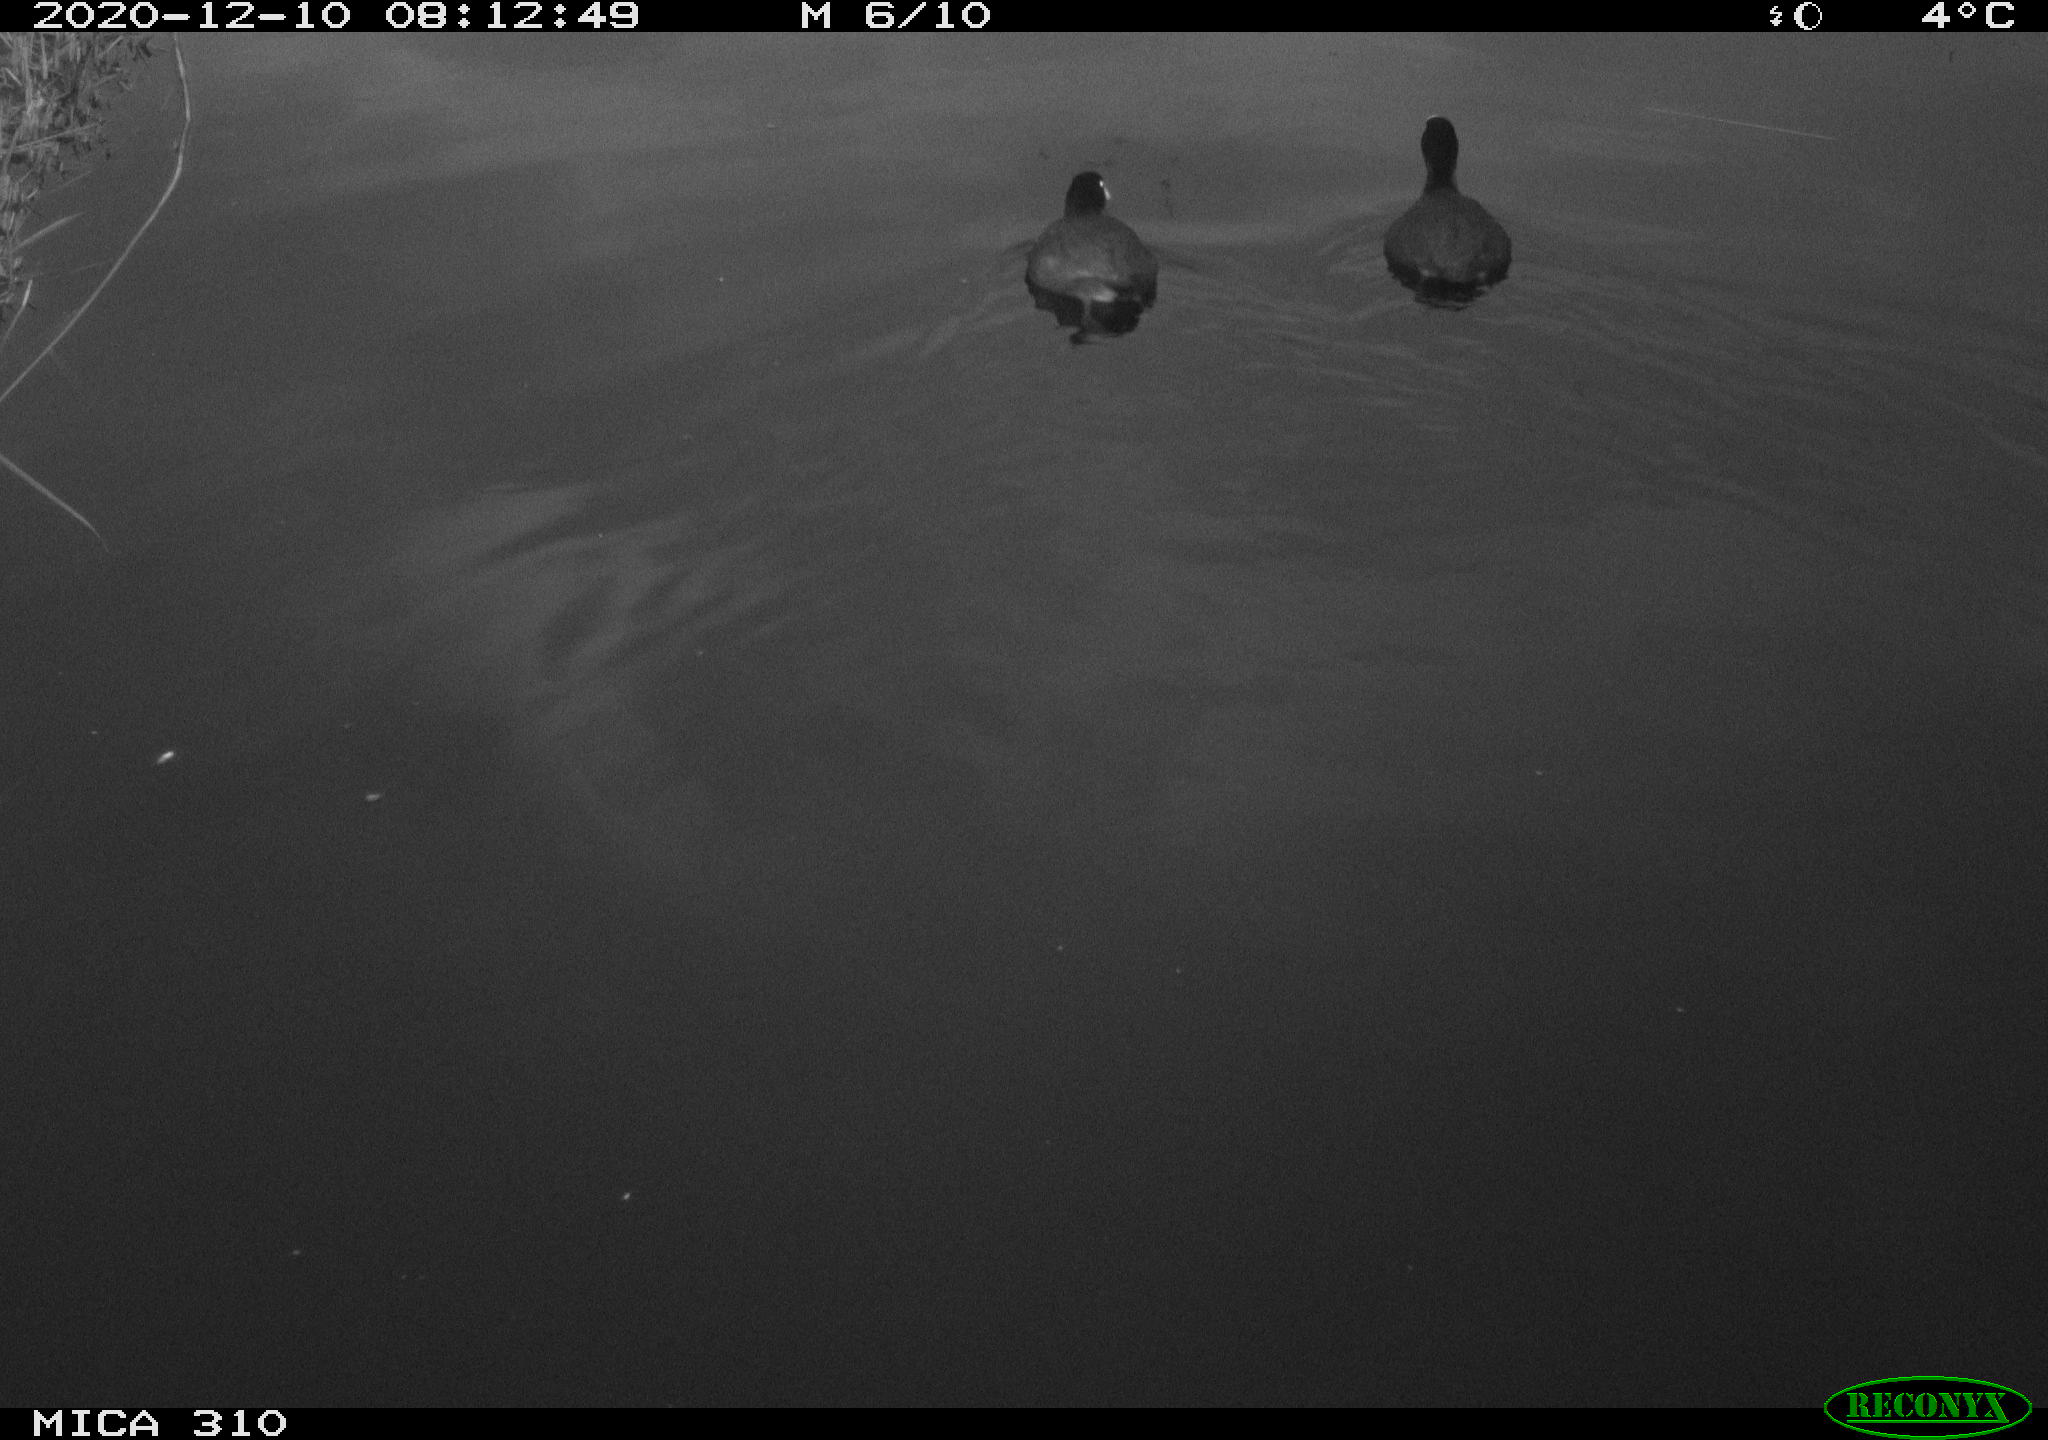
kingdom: Animalia
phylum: Chordata
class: Aves
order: Gruiformes
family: Rallidae
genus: Fulica
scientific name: Fulica atra
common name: Eurasian coot
